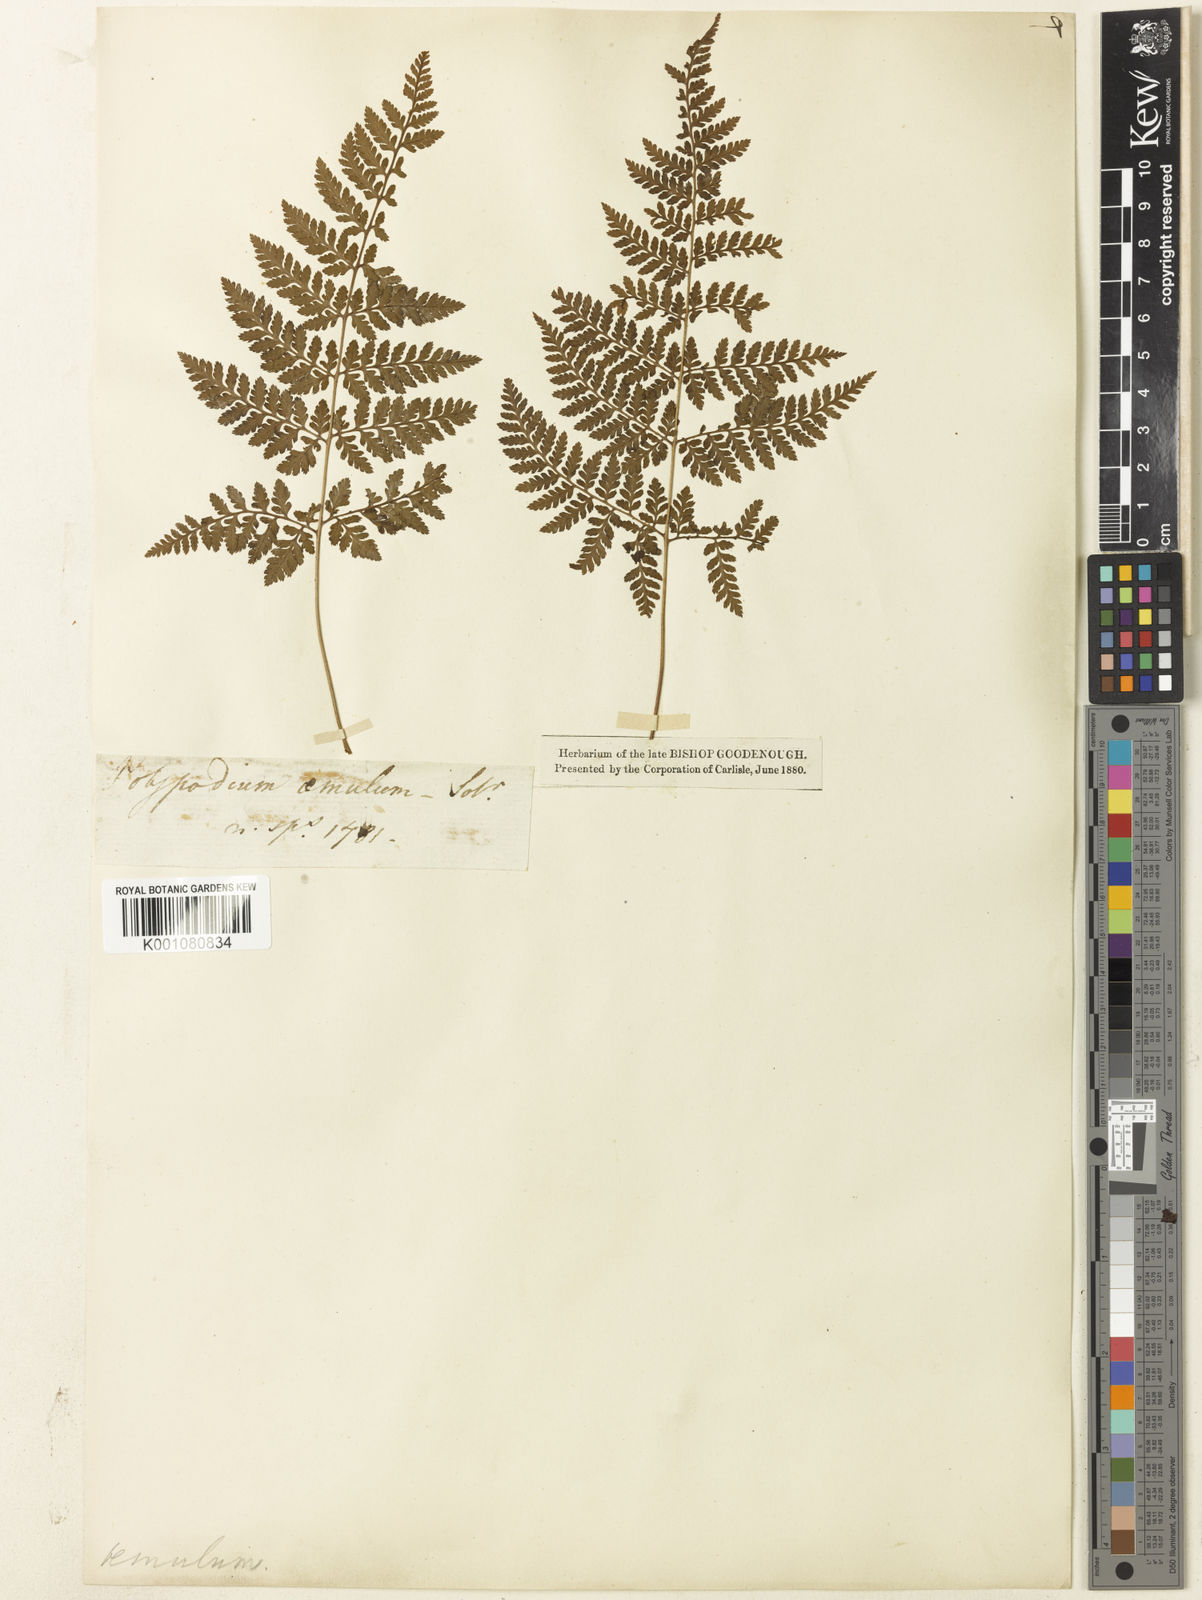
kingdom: Plantae
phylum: Tracheophyta
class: Polypodiopsida
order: Polypodiales
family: Dryopteridaceae
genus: Dryopteris
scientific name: Dryopteris aemula
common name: Hay-scented buckler-fern
